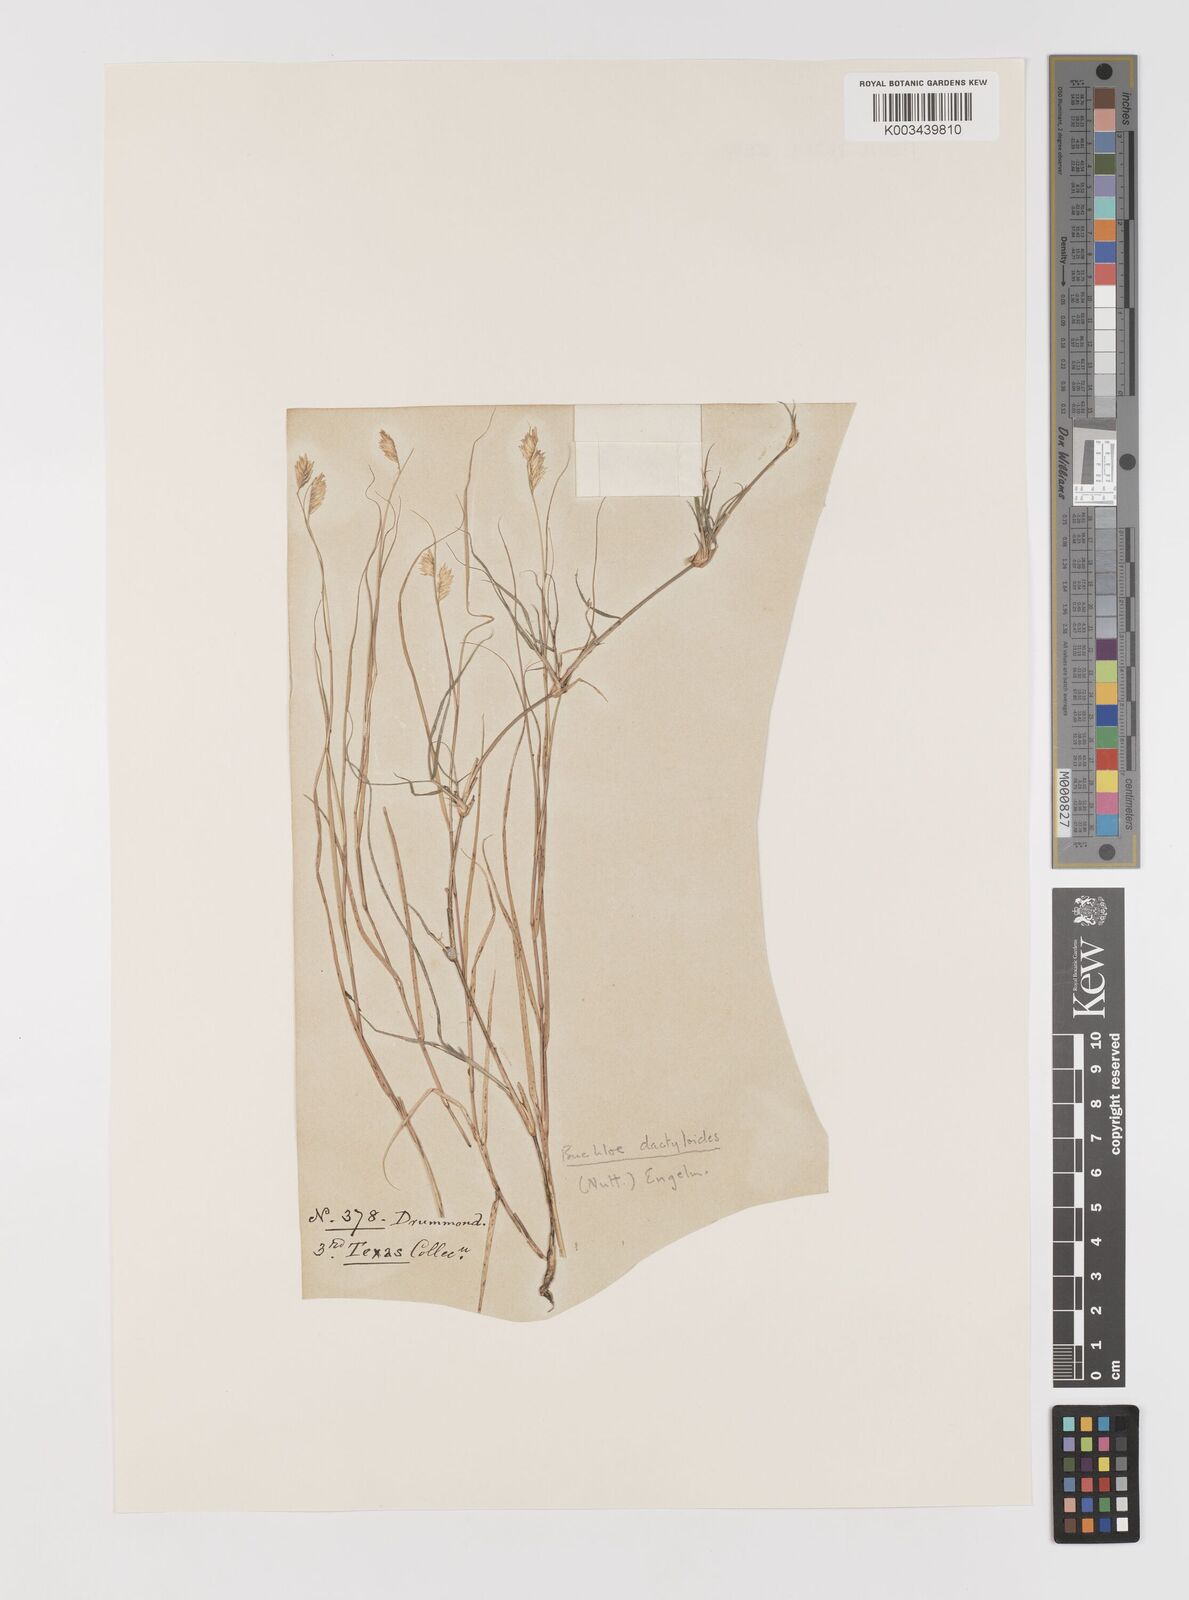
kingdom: Plantae
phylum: Tracheophyta
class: Liliopsida
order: Poales
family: Poaceae
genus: Bouteloua
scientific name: Bouteloua dactyloides
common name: Buffalo grass
